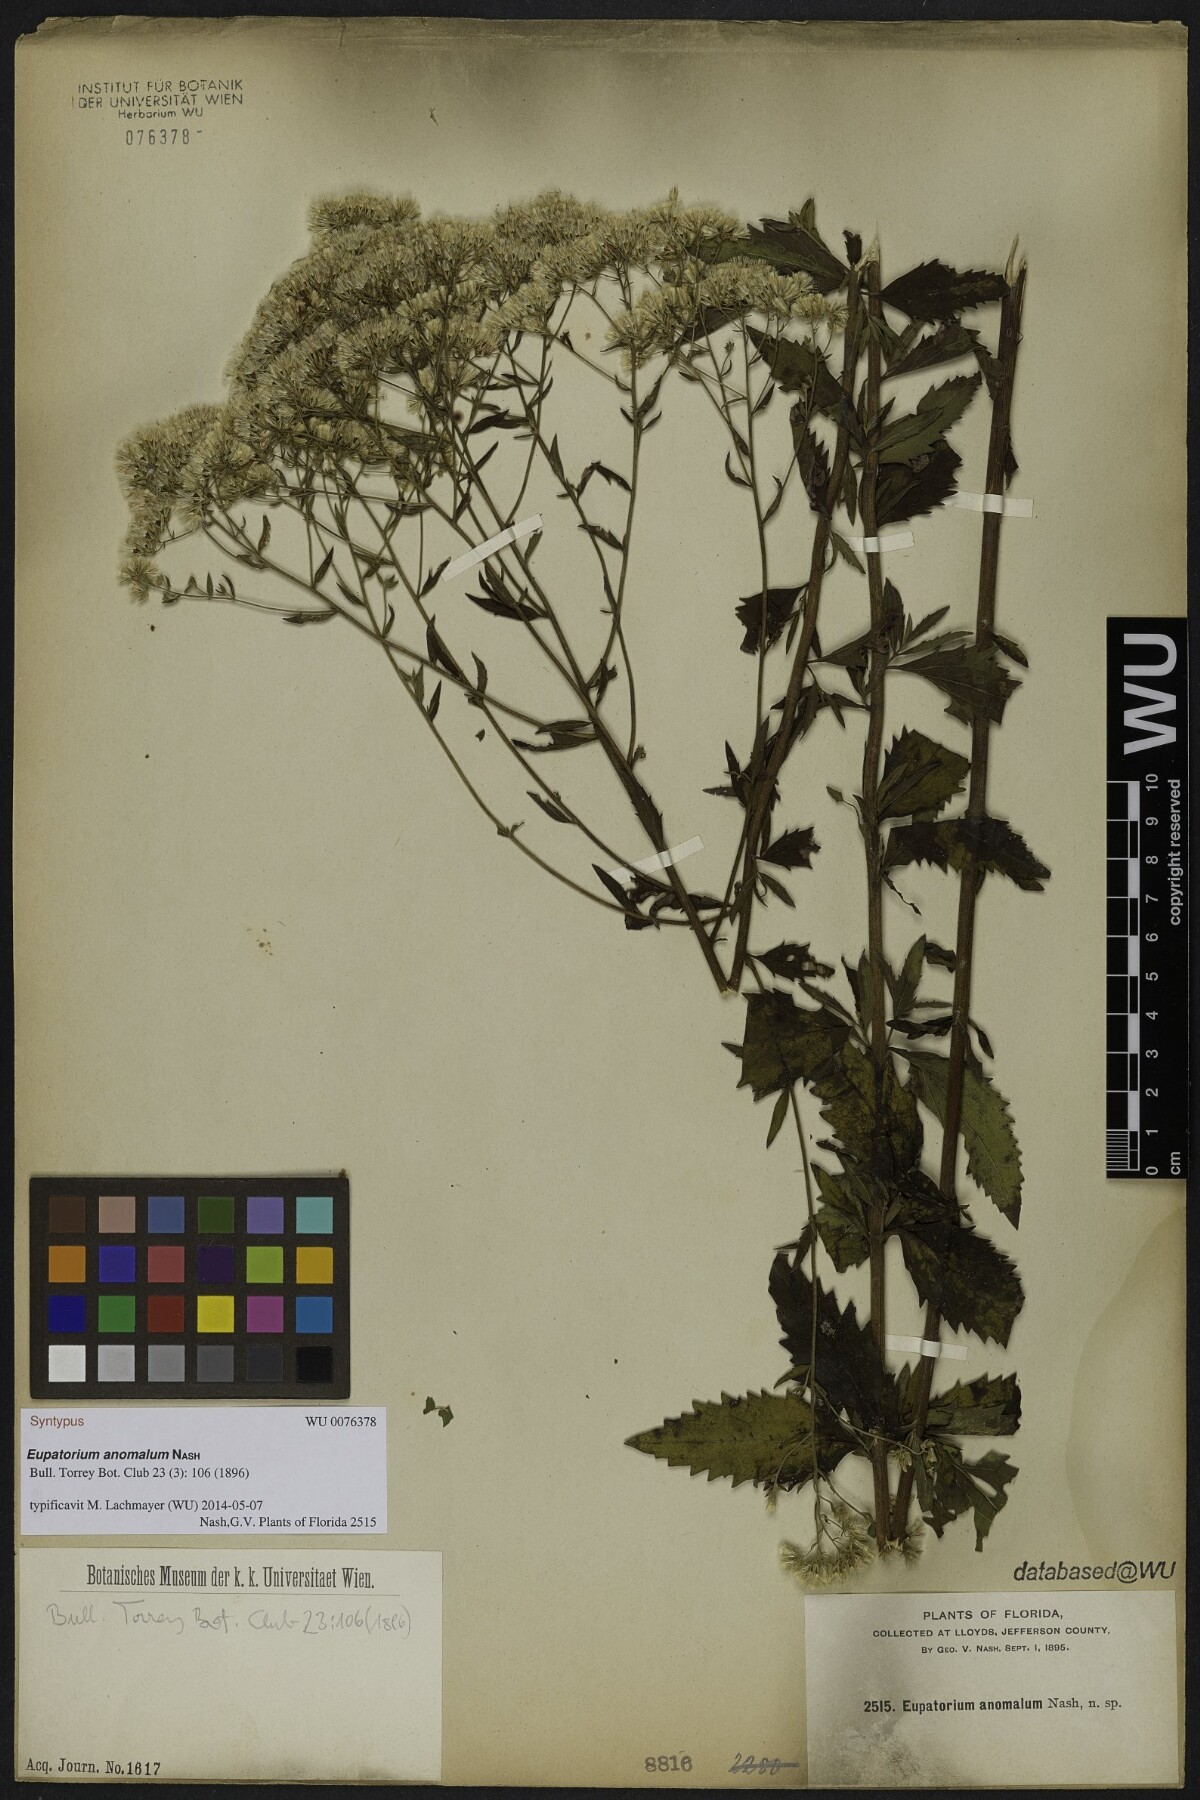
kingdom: Plantae
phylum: Tracheophyta
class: Magnoliopsida
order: Asterales
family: Asteraceae
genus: Eupatorium
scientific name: Eupatorium anomalum
